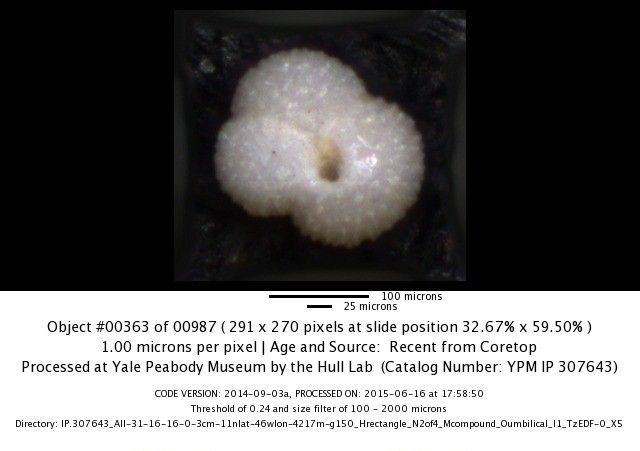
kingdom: Chromista
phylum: Foraminifera
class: Globothalamea
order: Rotaliida
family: Globigerinidae
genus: Globigerinoides
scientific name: Globigerinoides ruber
